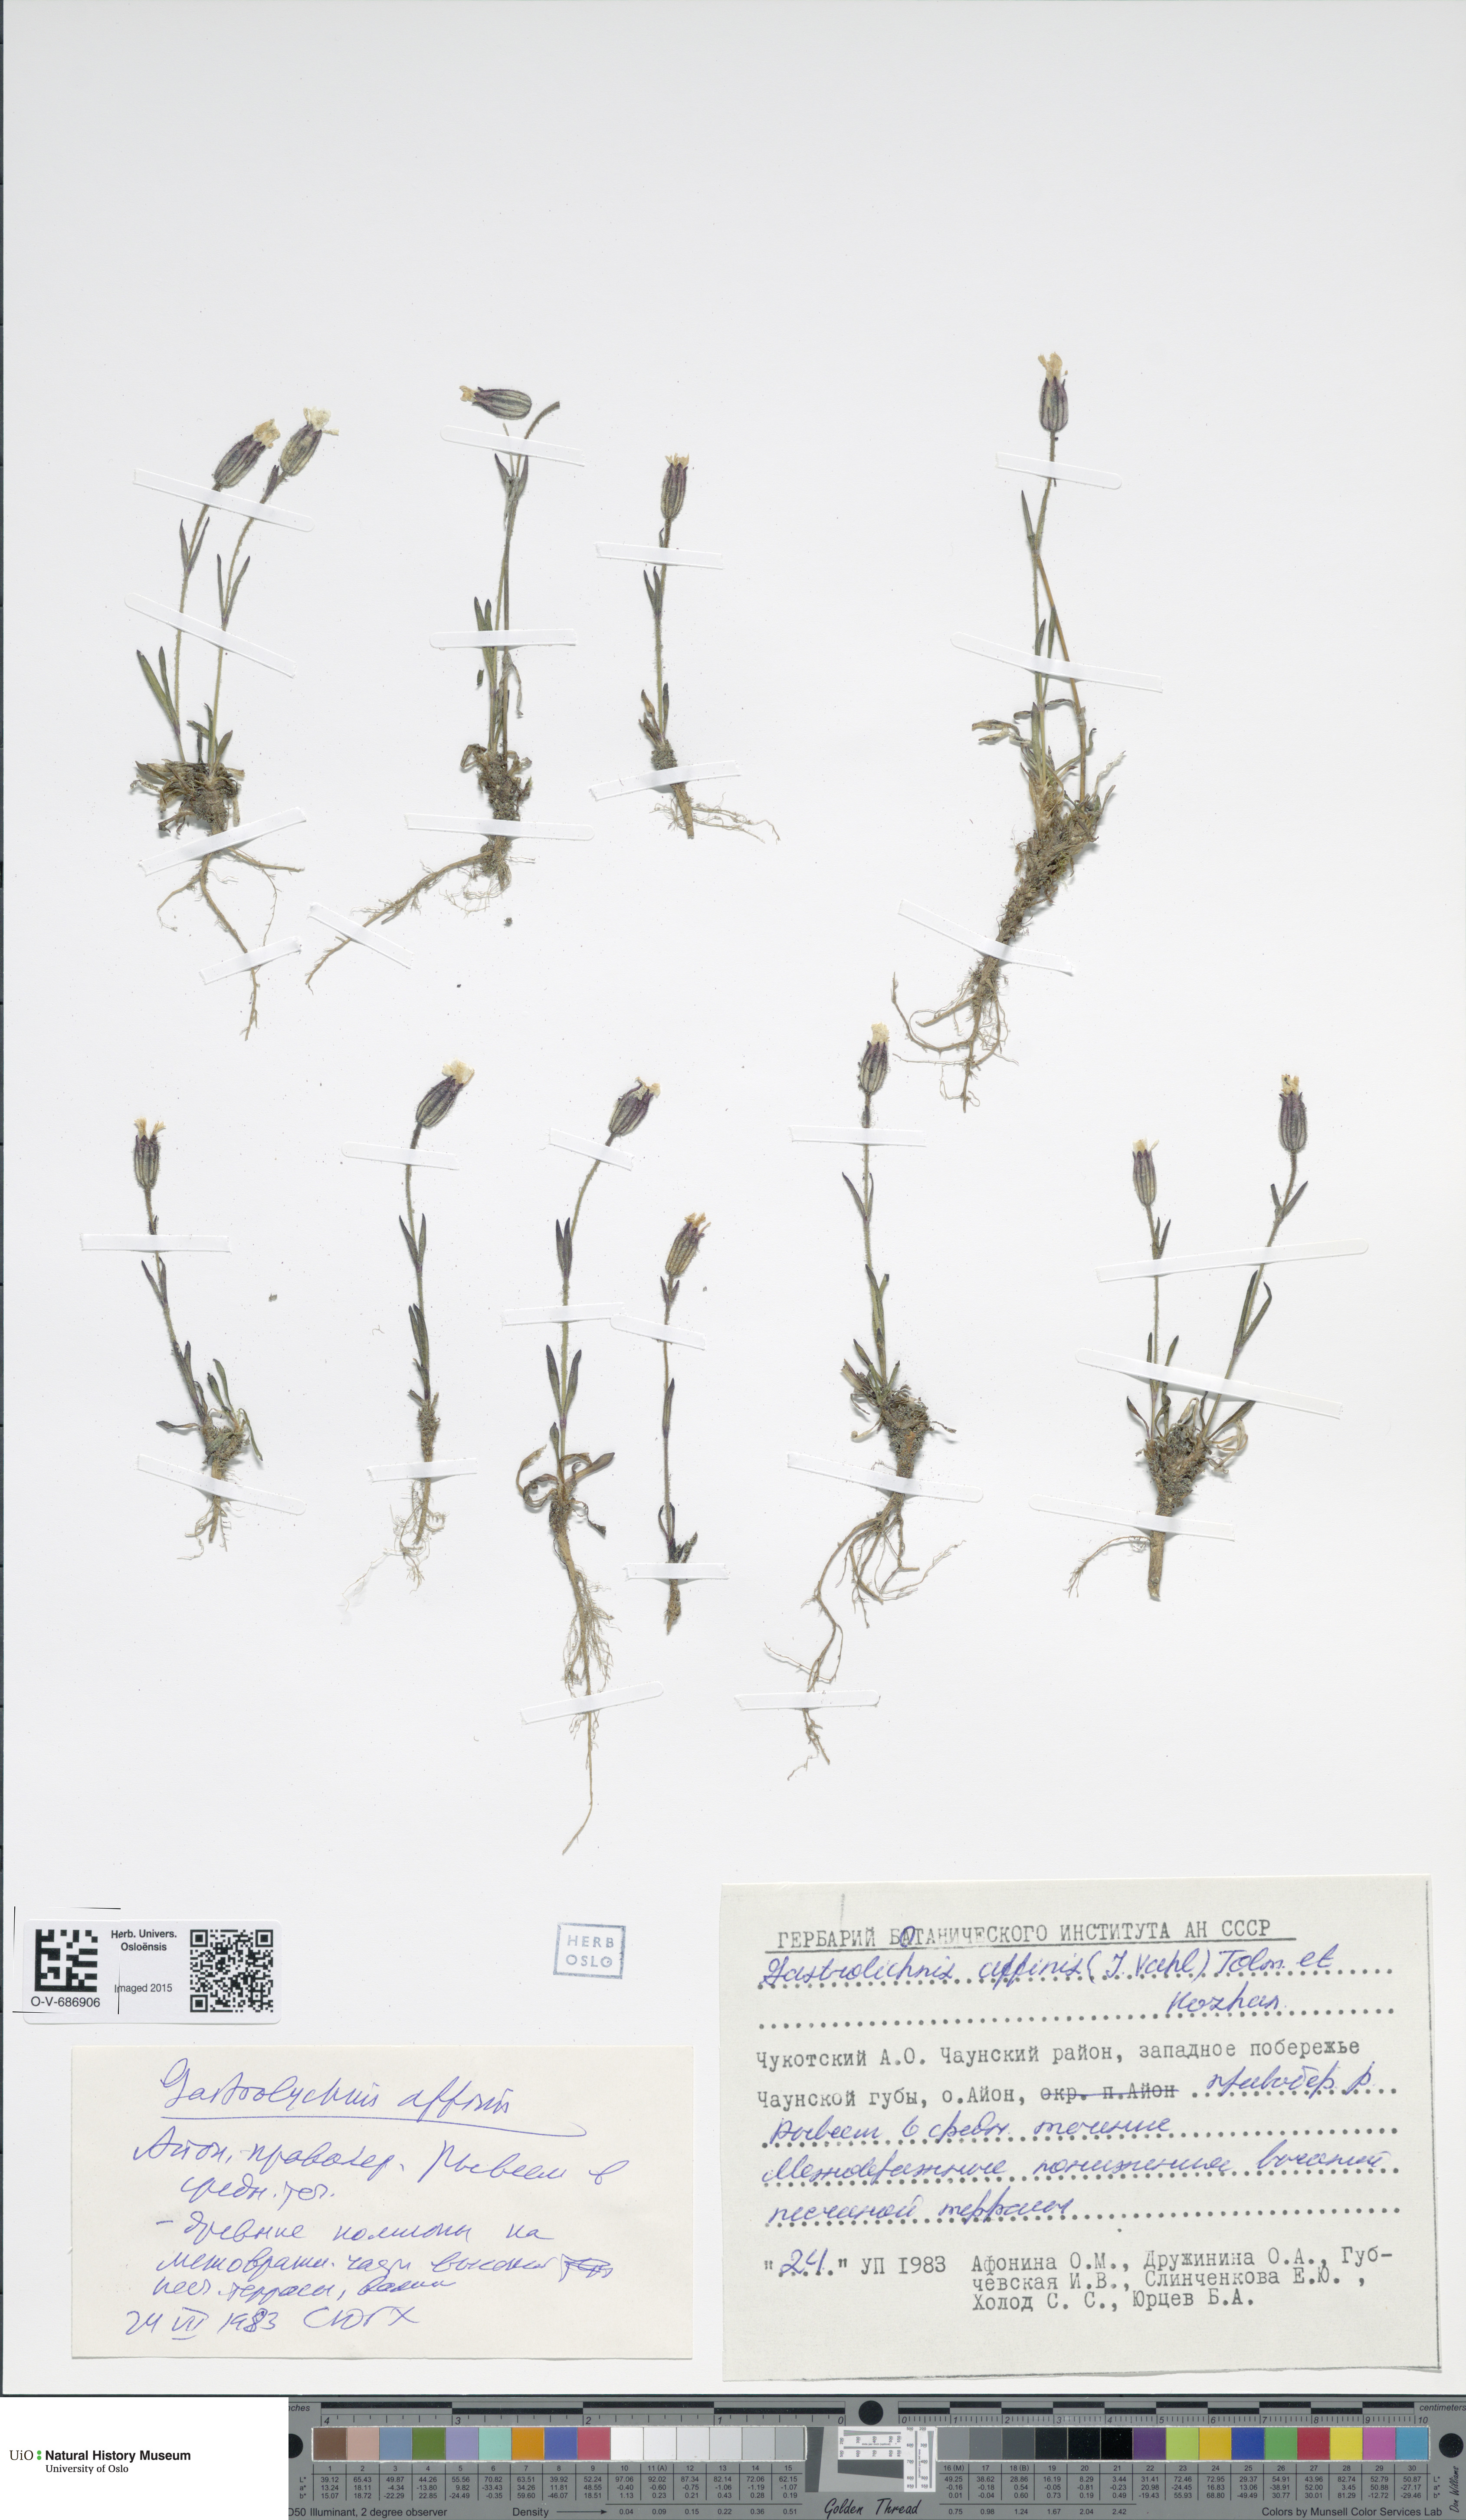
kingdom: Plantae
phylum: Tracheophyta
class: Magnoliopsida
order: Caryophyllales
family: Caryophyllaceae
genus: Silene
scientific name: Silene involucrata
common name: Greater arctic campion
